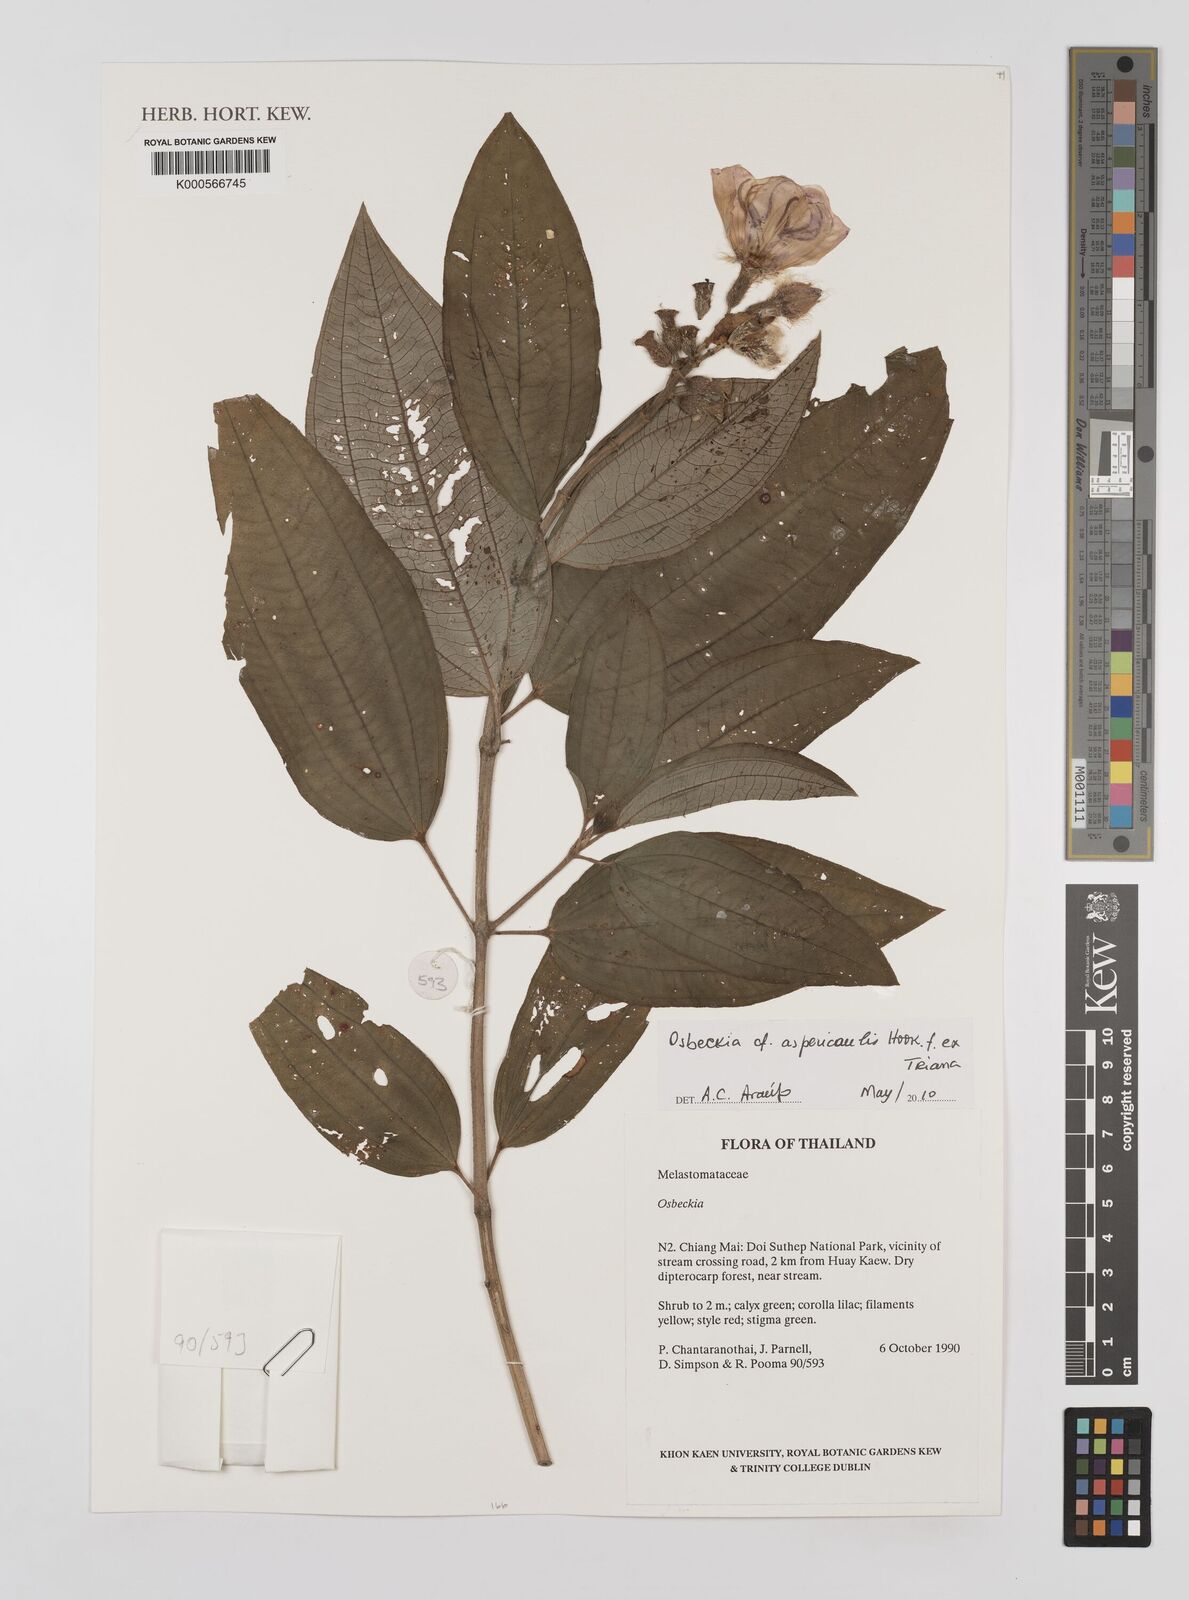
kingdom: Plantae
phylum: Tracheophyta
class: Magnoliopsida
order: Myrtales
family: Melastomataceae
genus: Osbeckia
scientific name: Osbeckia aspericaulis
